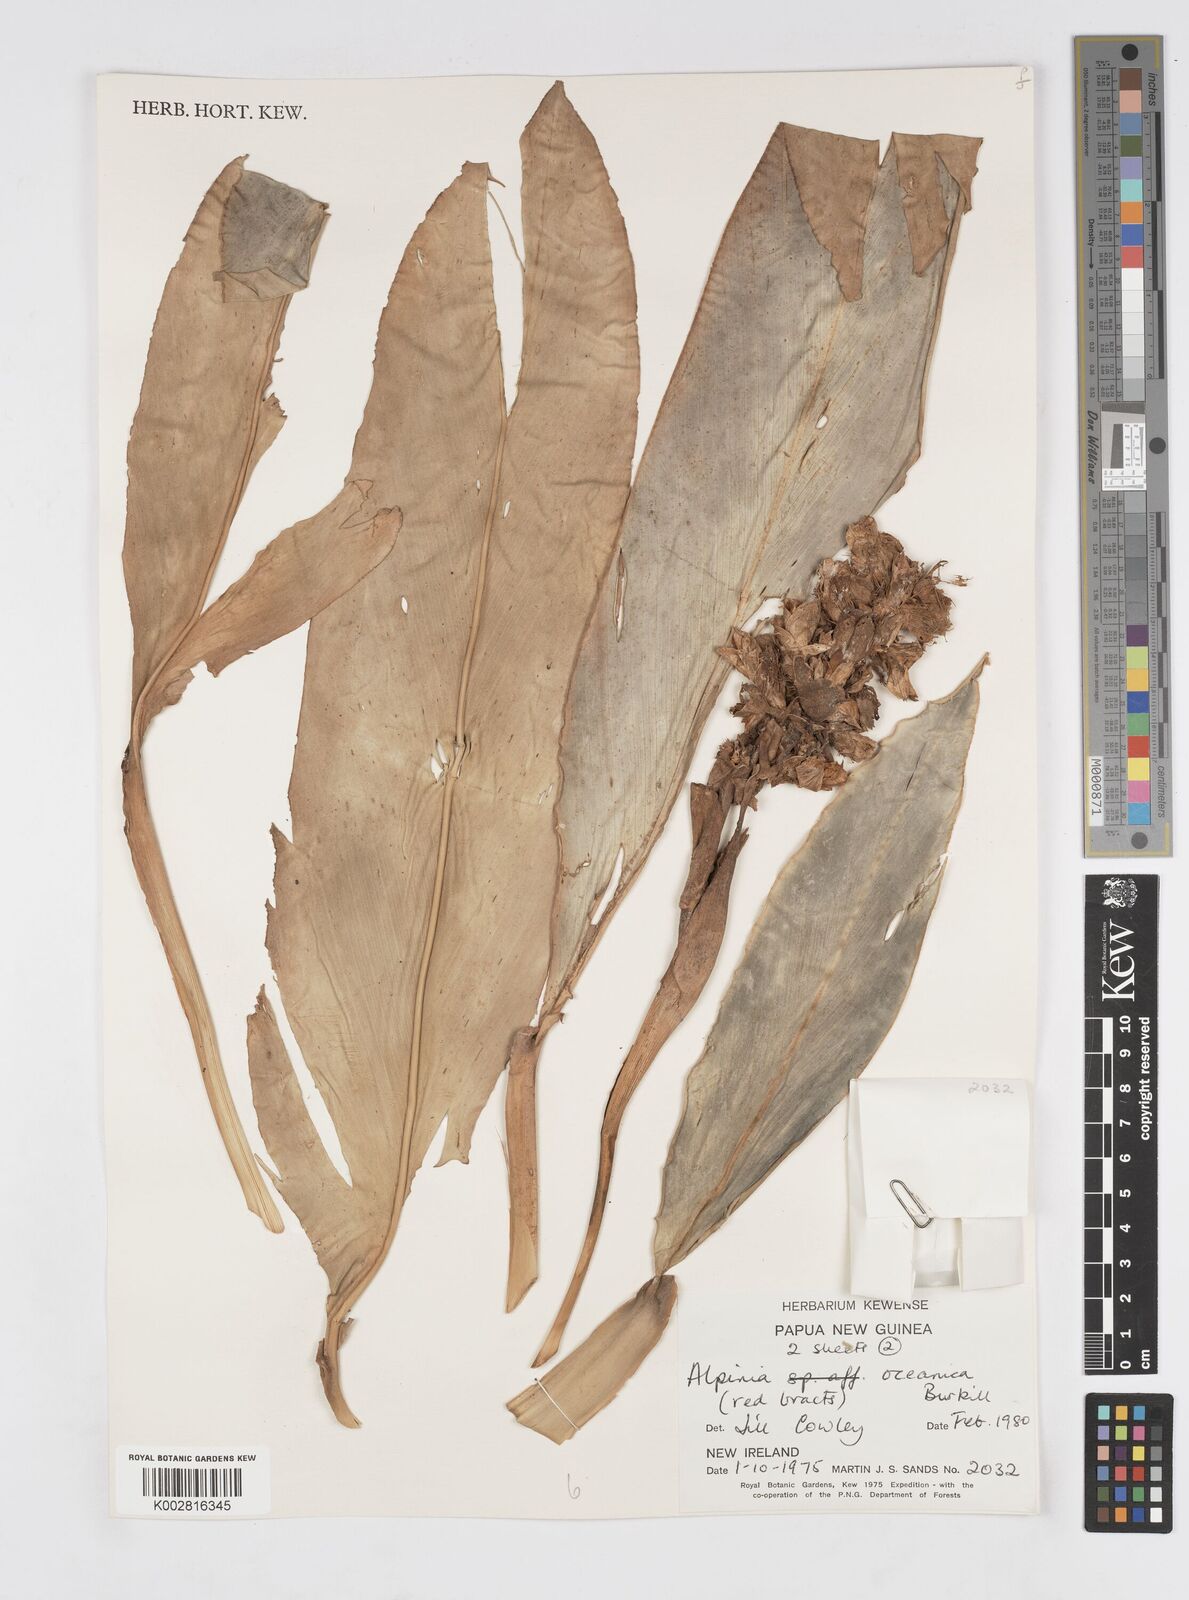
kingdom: Plantae
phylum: Tracheophyta
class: Liliopsida
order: Zingiberales
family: Zingiberaceae
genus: Alpinia
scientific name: Alpinia oceanica
